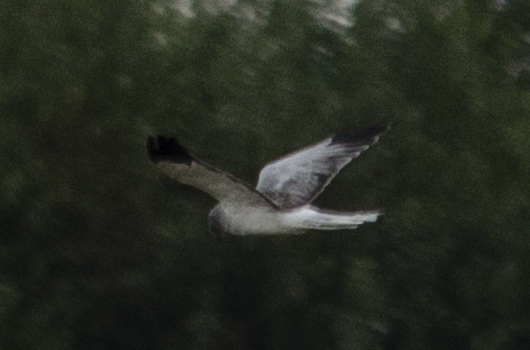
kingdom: Animalia
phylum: Chordata
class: Aves
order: Accipitriformes
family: Accipitridae
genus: Circus
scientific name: Circus cyaneus
